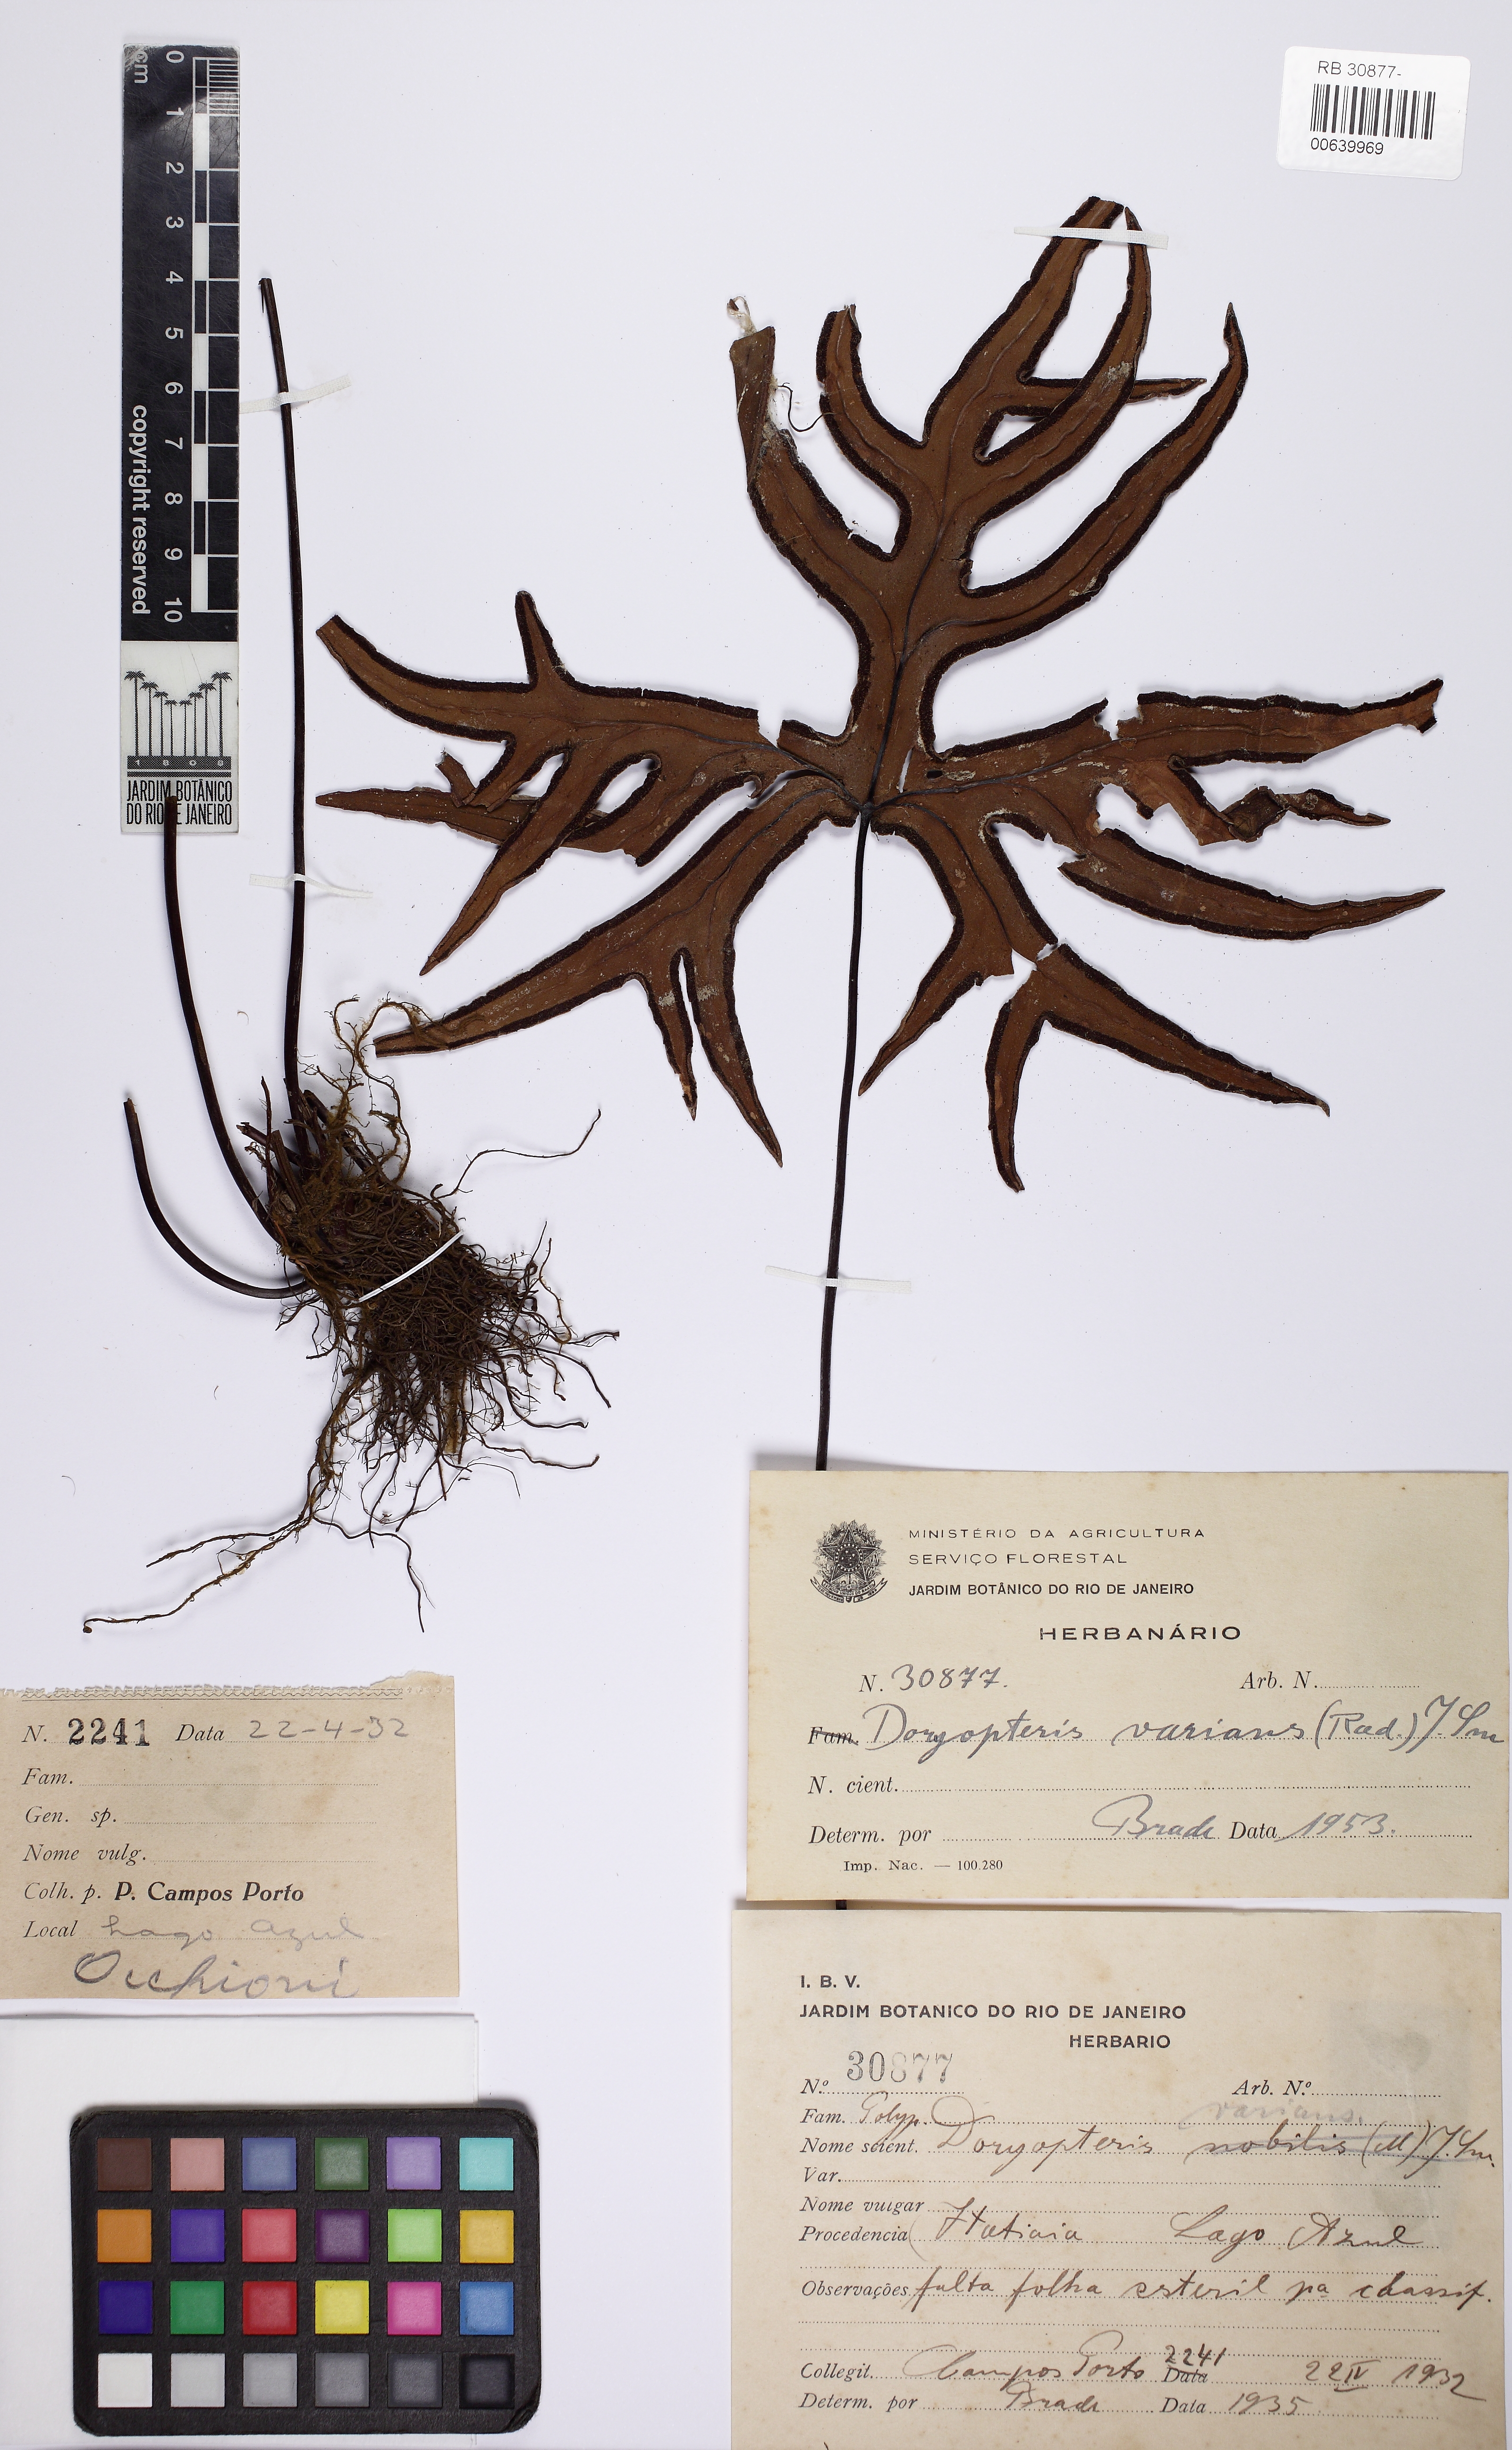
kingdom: Plantae
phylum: Tracheophyta
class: Polypodiopsida
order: Polypodiales
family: Pteridaceae
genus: Doryopteris
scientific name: Doryopteris varians
